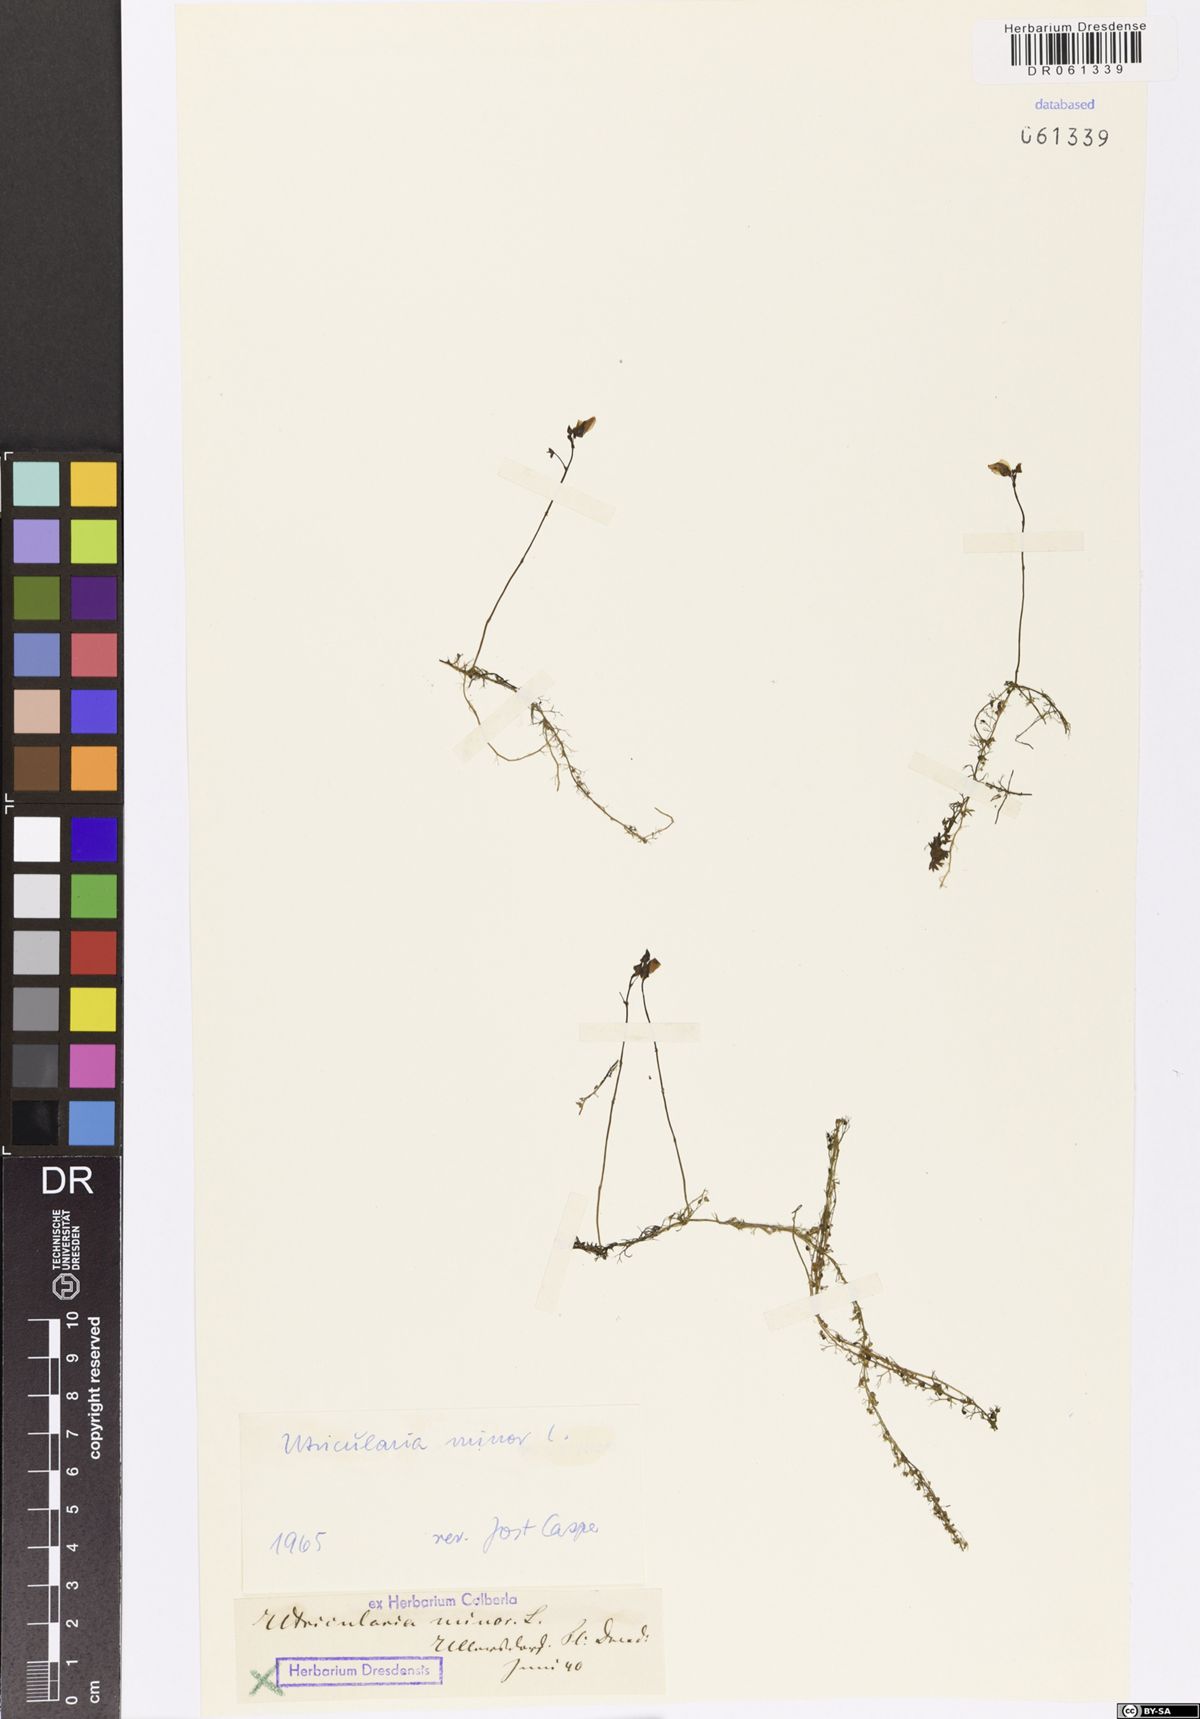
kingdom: Plantae
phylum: Tracheophyta
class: Magnoliopsida
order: Lamiales
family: Lentibulariaceae
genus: Utricularia
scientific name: Utricularia minor
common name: Lesser bladderwort
